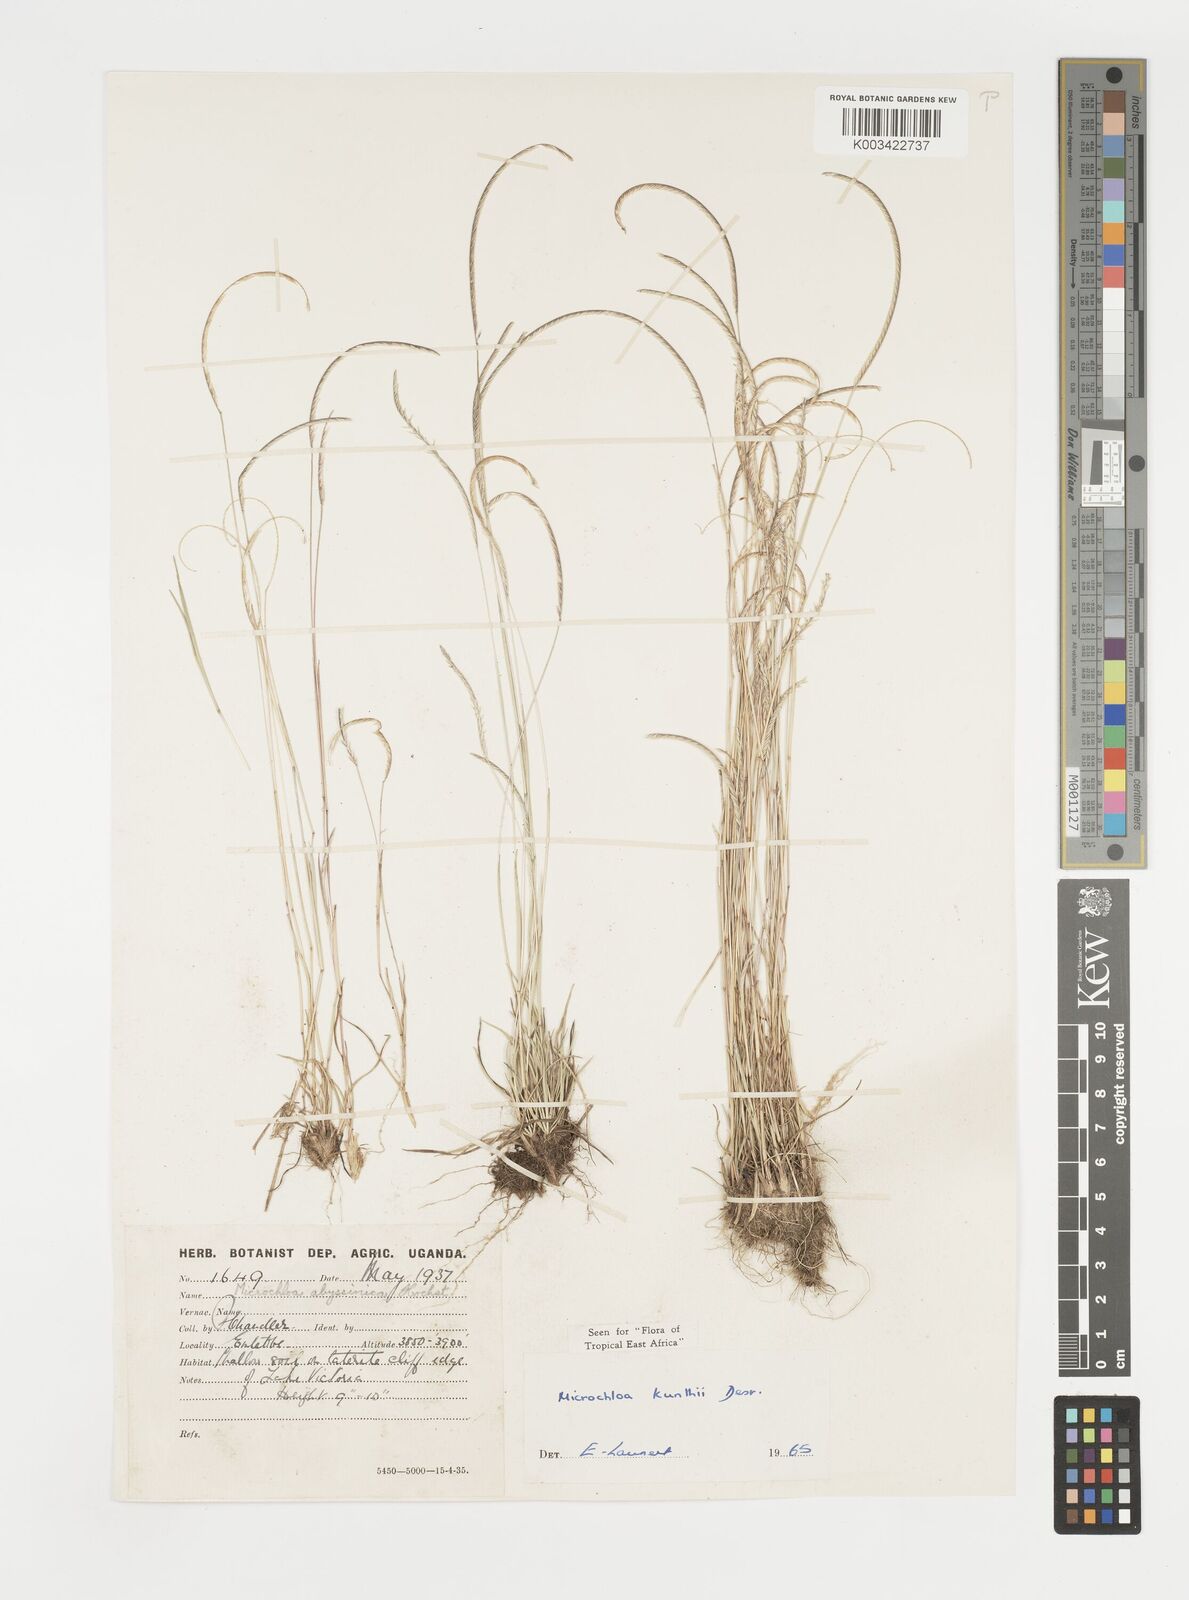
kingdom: Plantae
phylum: Tracheophyta
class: Liliopsida
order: Poales
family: Poaceae
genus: Microchloa
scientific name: Microchloa kunthii
